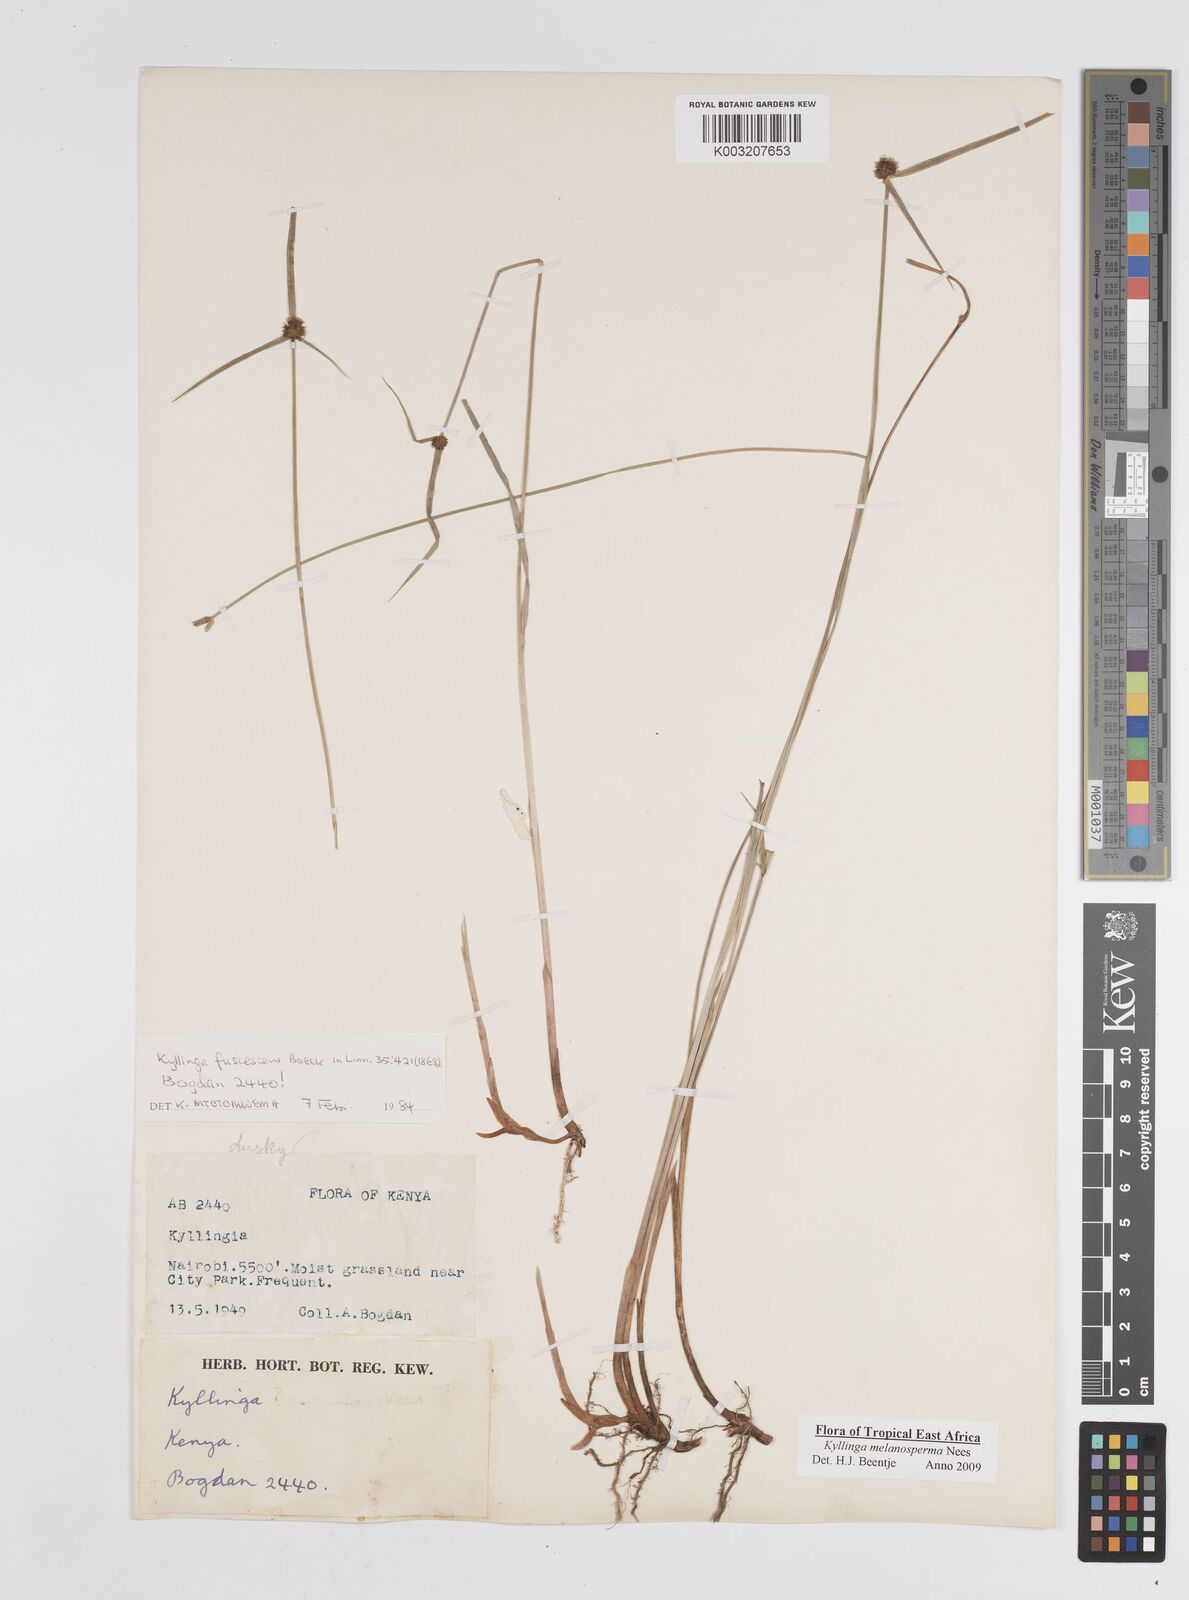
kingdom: Plantae
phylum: Tracheophyta
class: Liliopsida
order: Poales
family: Cyperaceae
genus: Cyperus
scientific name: Cyperus melanospermus
